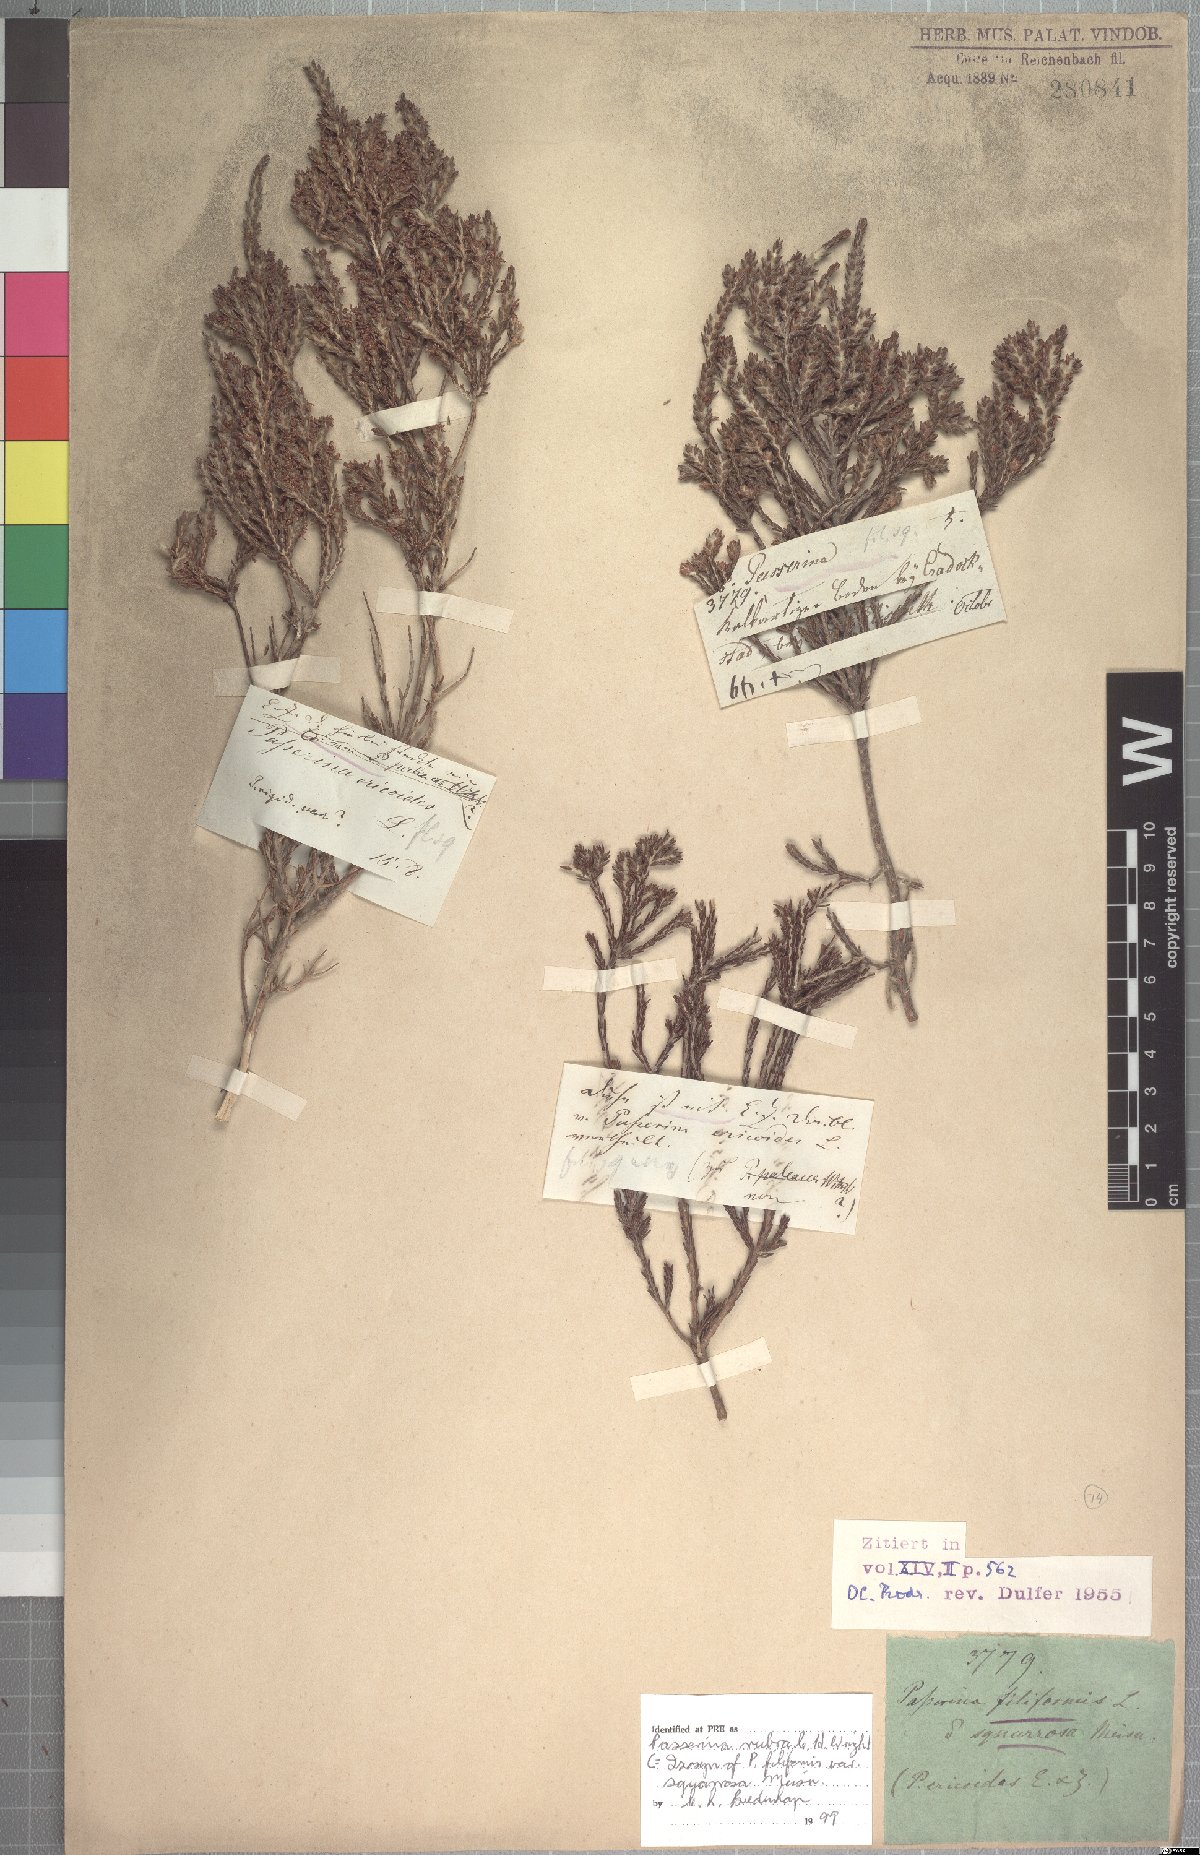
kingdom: Plantae
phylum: Tracheophyta
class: Magnoliopsida
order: Malvales
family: Thymelaeaceae
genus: Passerina
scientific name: Passerina rubra
